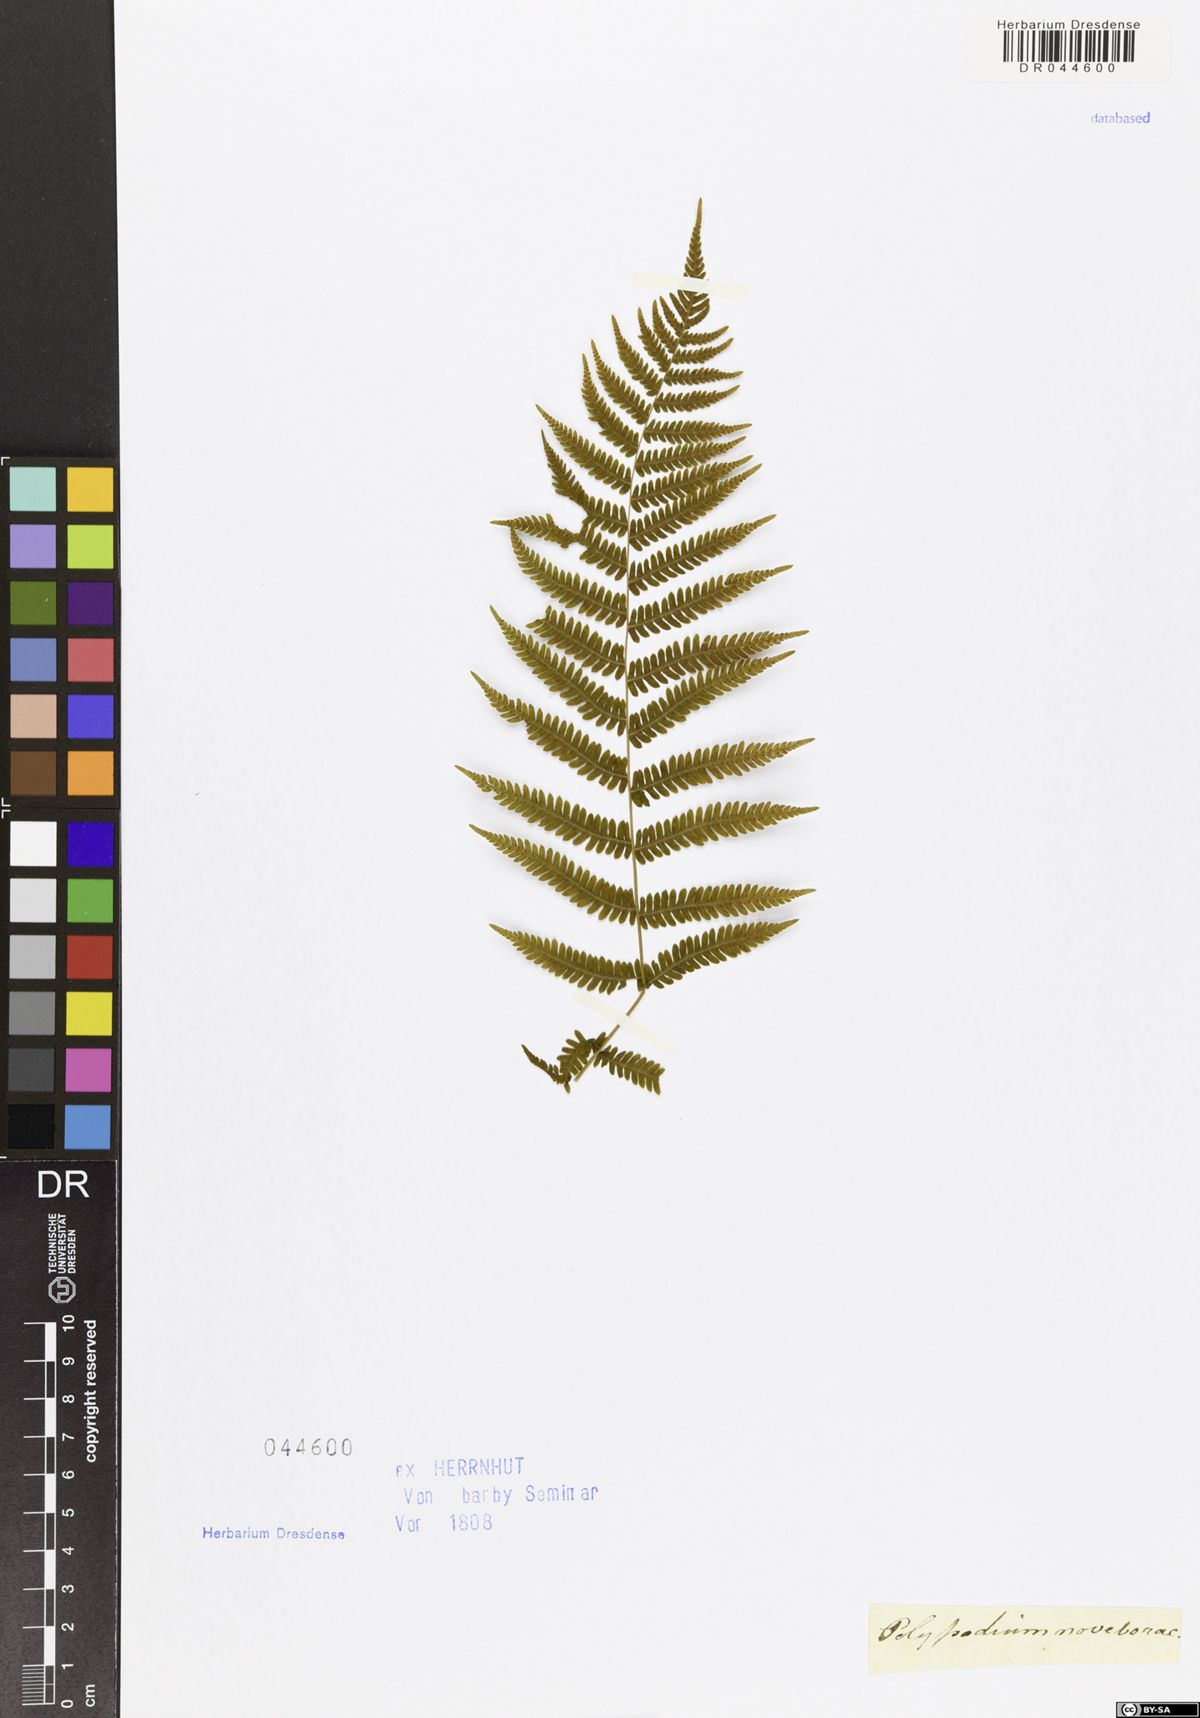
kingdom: Plantae
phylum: Tracheophyta
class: Polypodiopsida
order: Polypodiales
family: Thelypteridaceae
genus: Amauropelta
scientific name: Amauropelta noveboracensis
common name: New york fern
